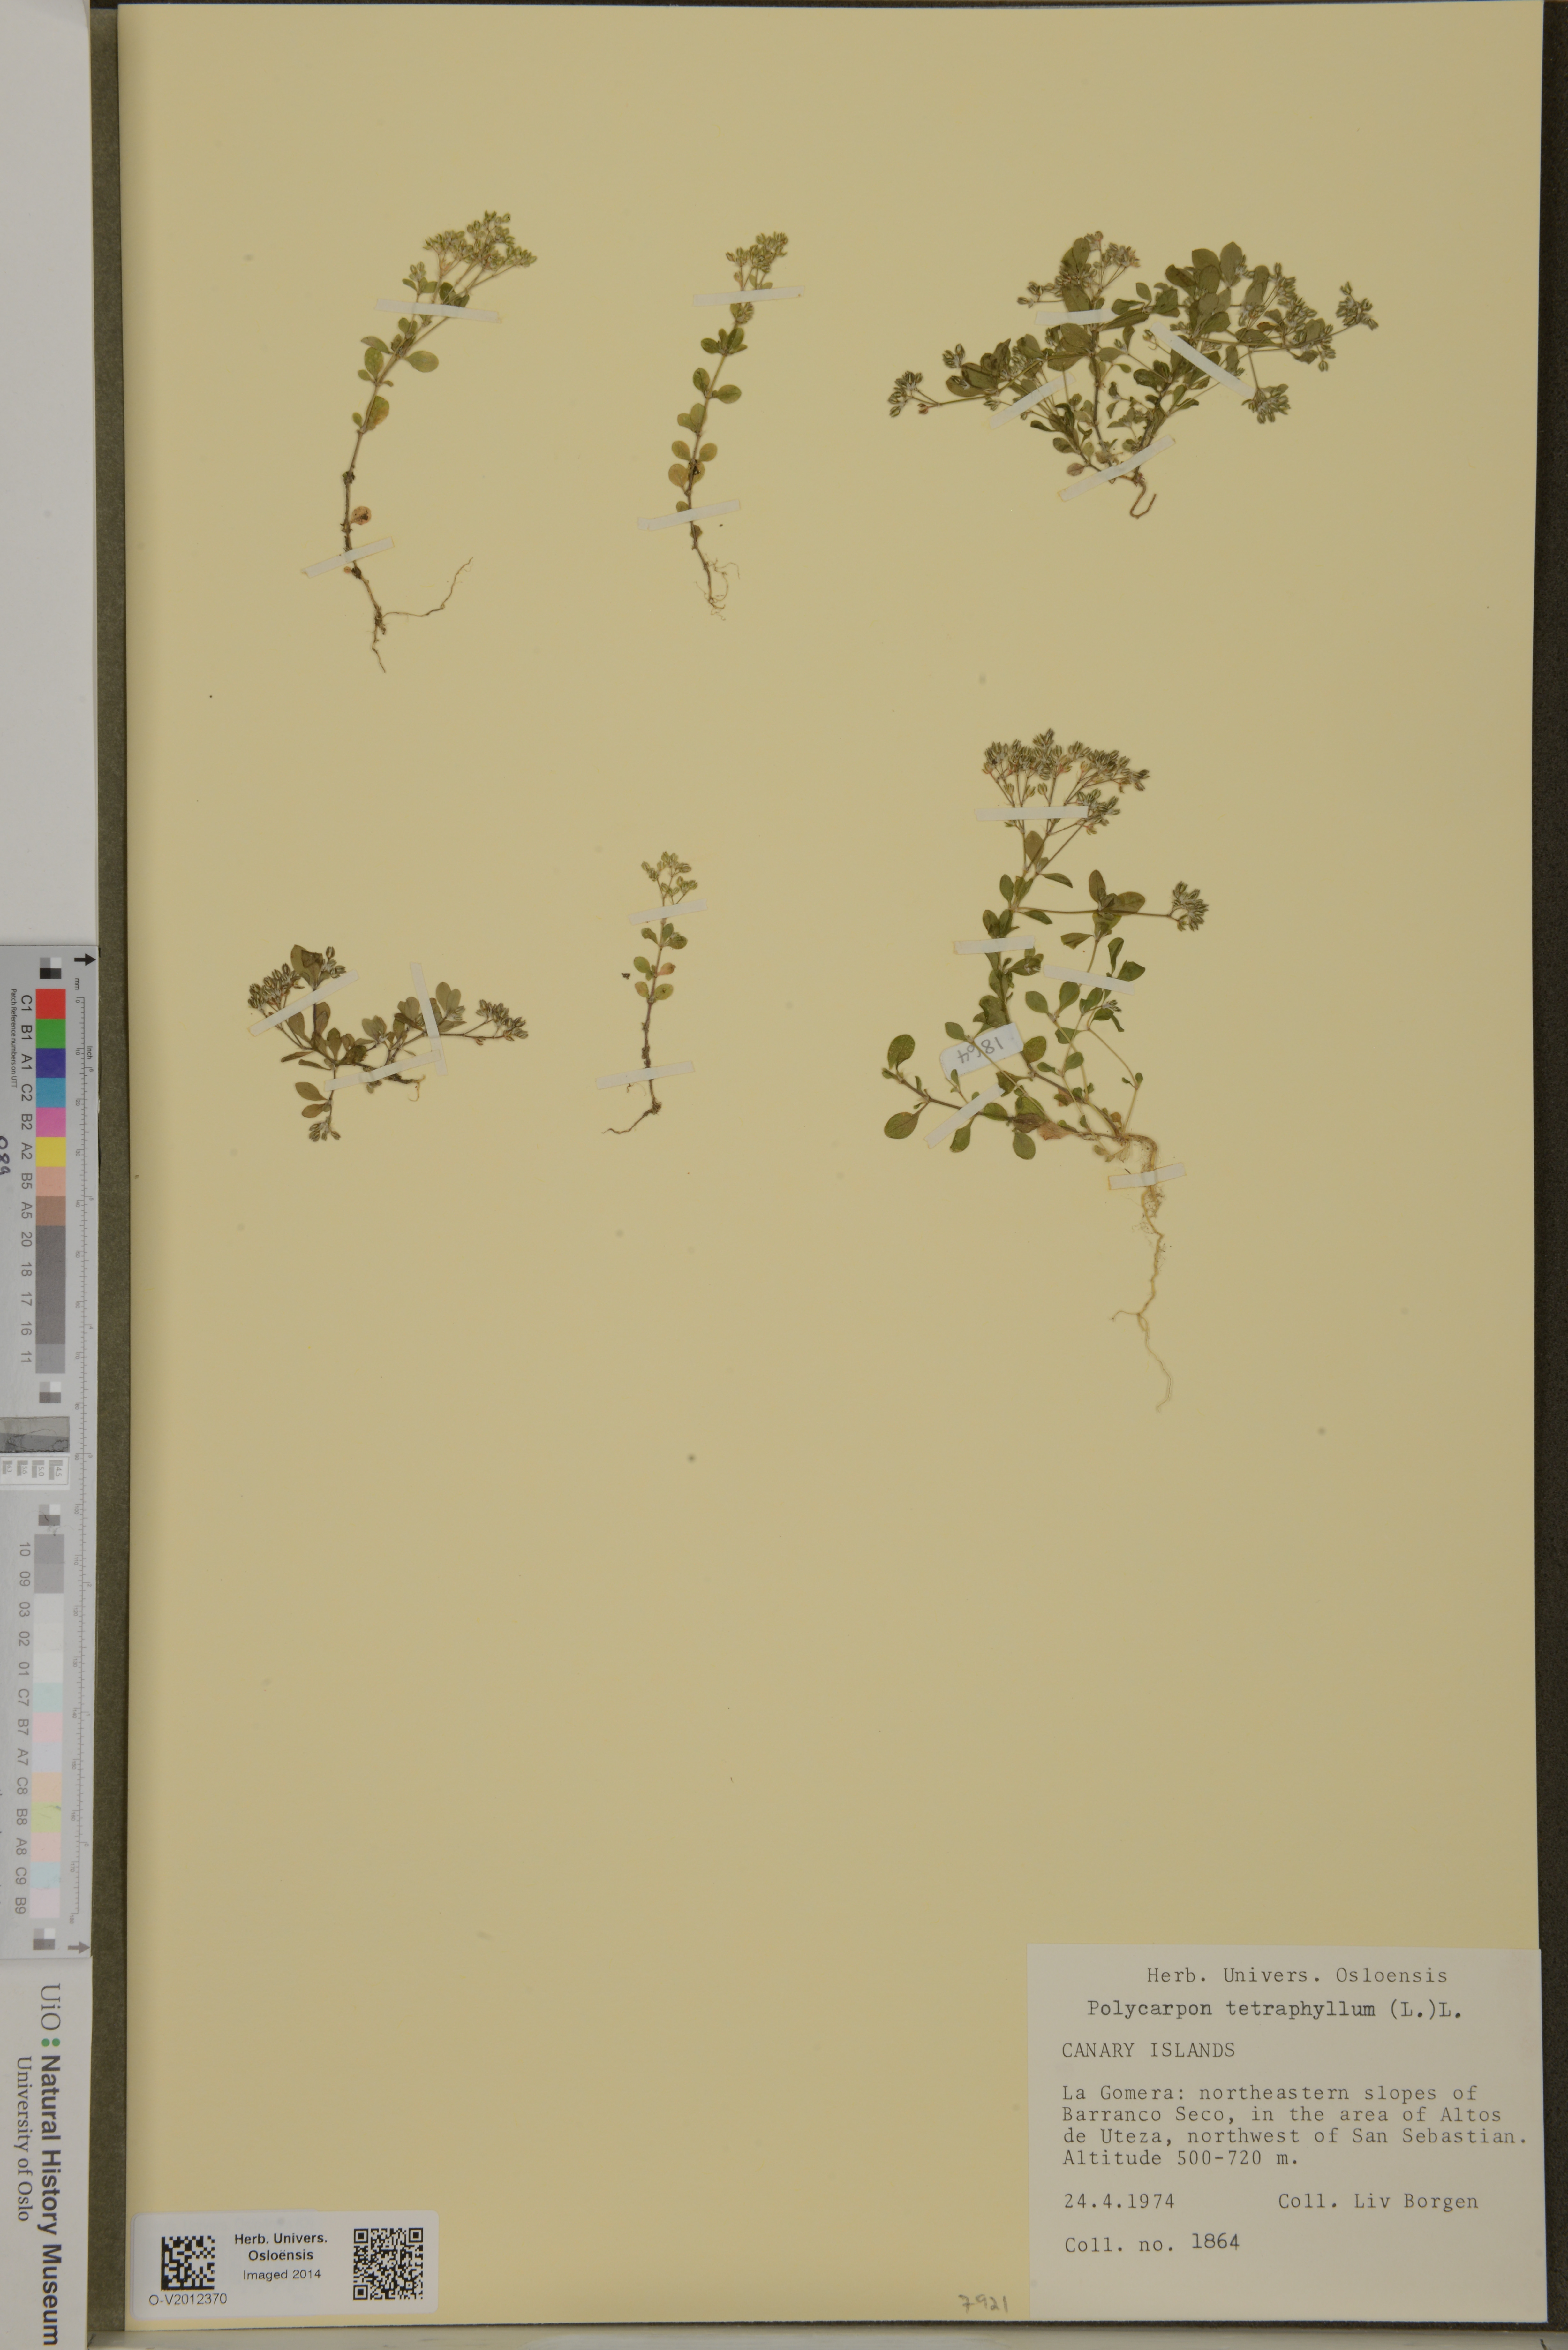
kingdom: Plantae
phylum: Tracheophyta
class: Magnoliopsida
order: Caryophyllales
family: Caryophyllaceae
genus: Polycarpon
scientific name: Polycarpon tetraphyllum
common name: Four-leaved all-seed
